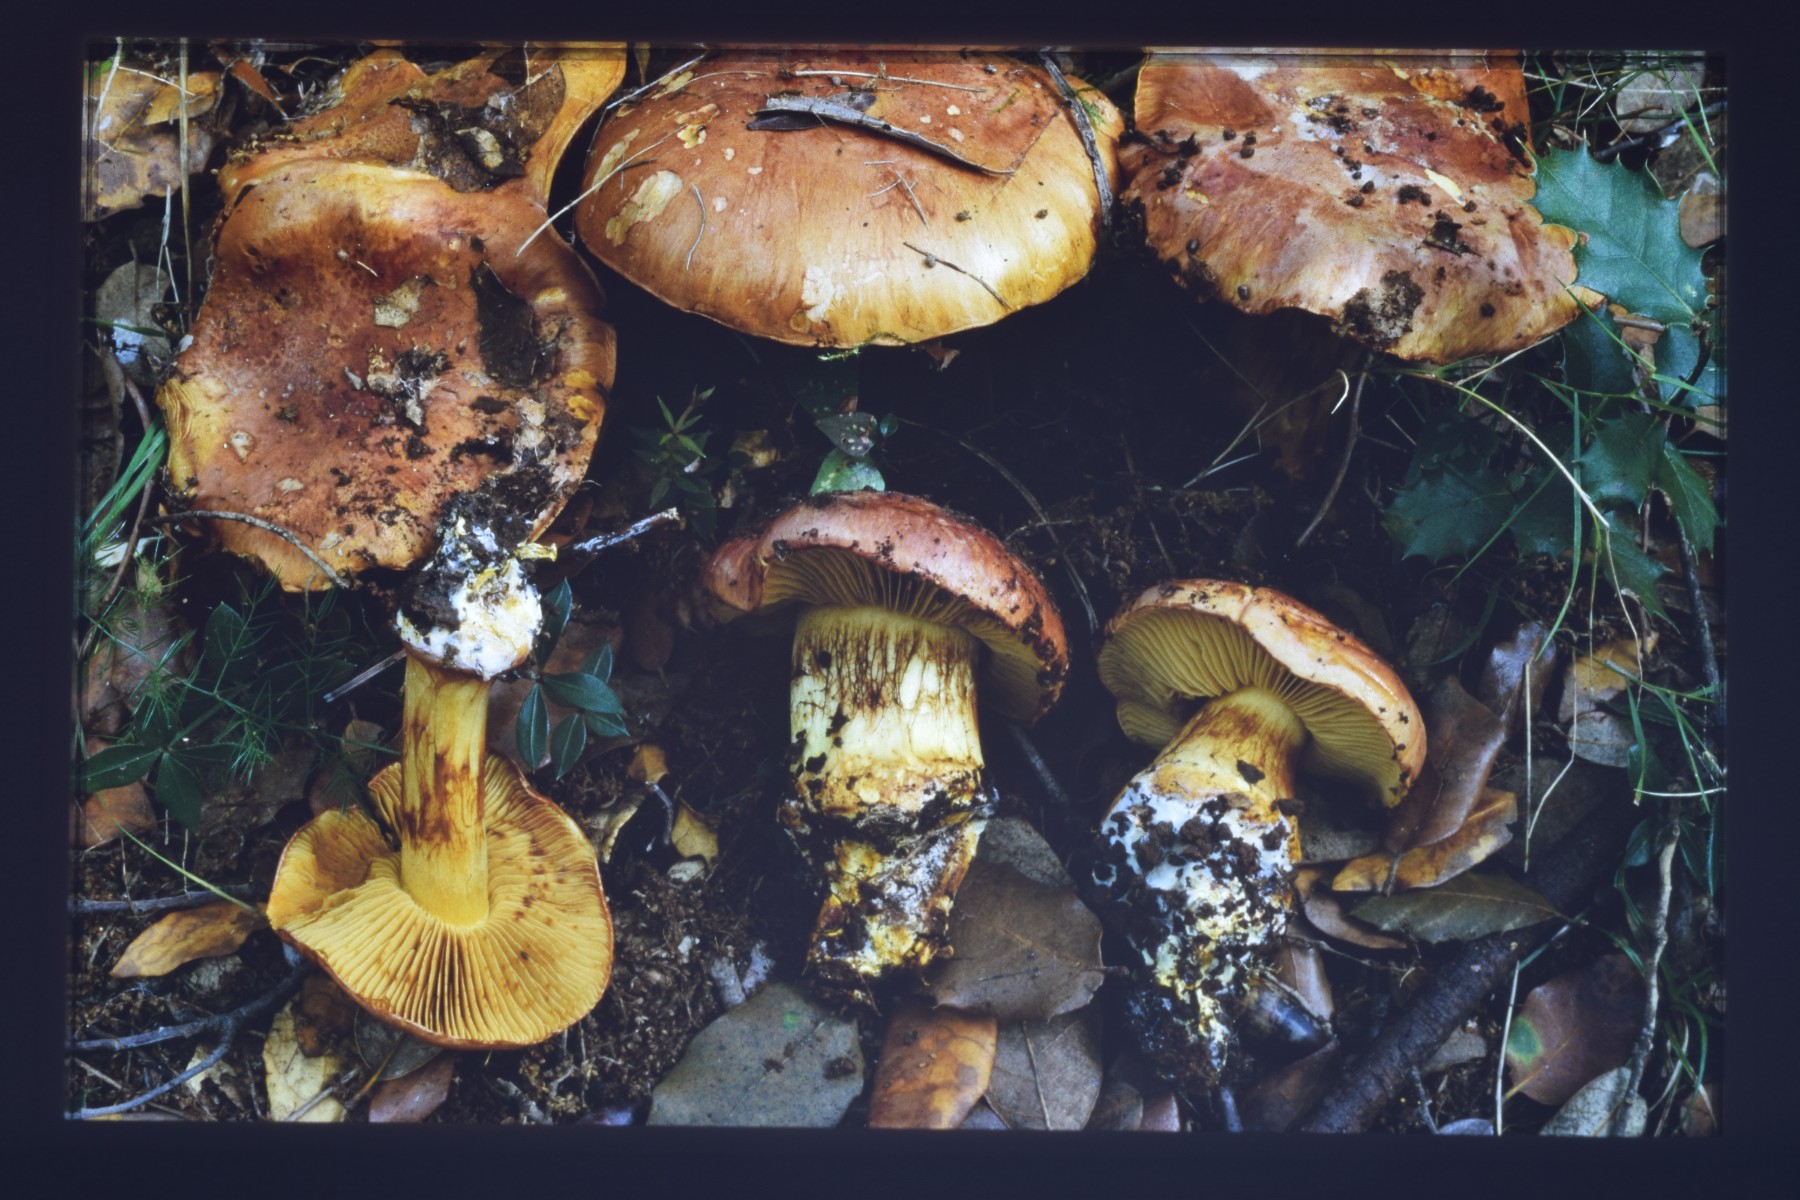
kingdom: Fungi
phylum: Basidiomycota
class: Agaricomycetes
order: Agaricales
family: Cortinariaceae
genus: Calonarius
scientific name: Calonarius murellensis
